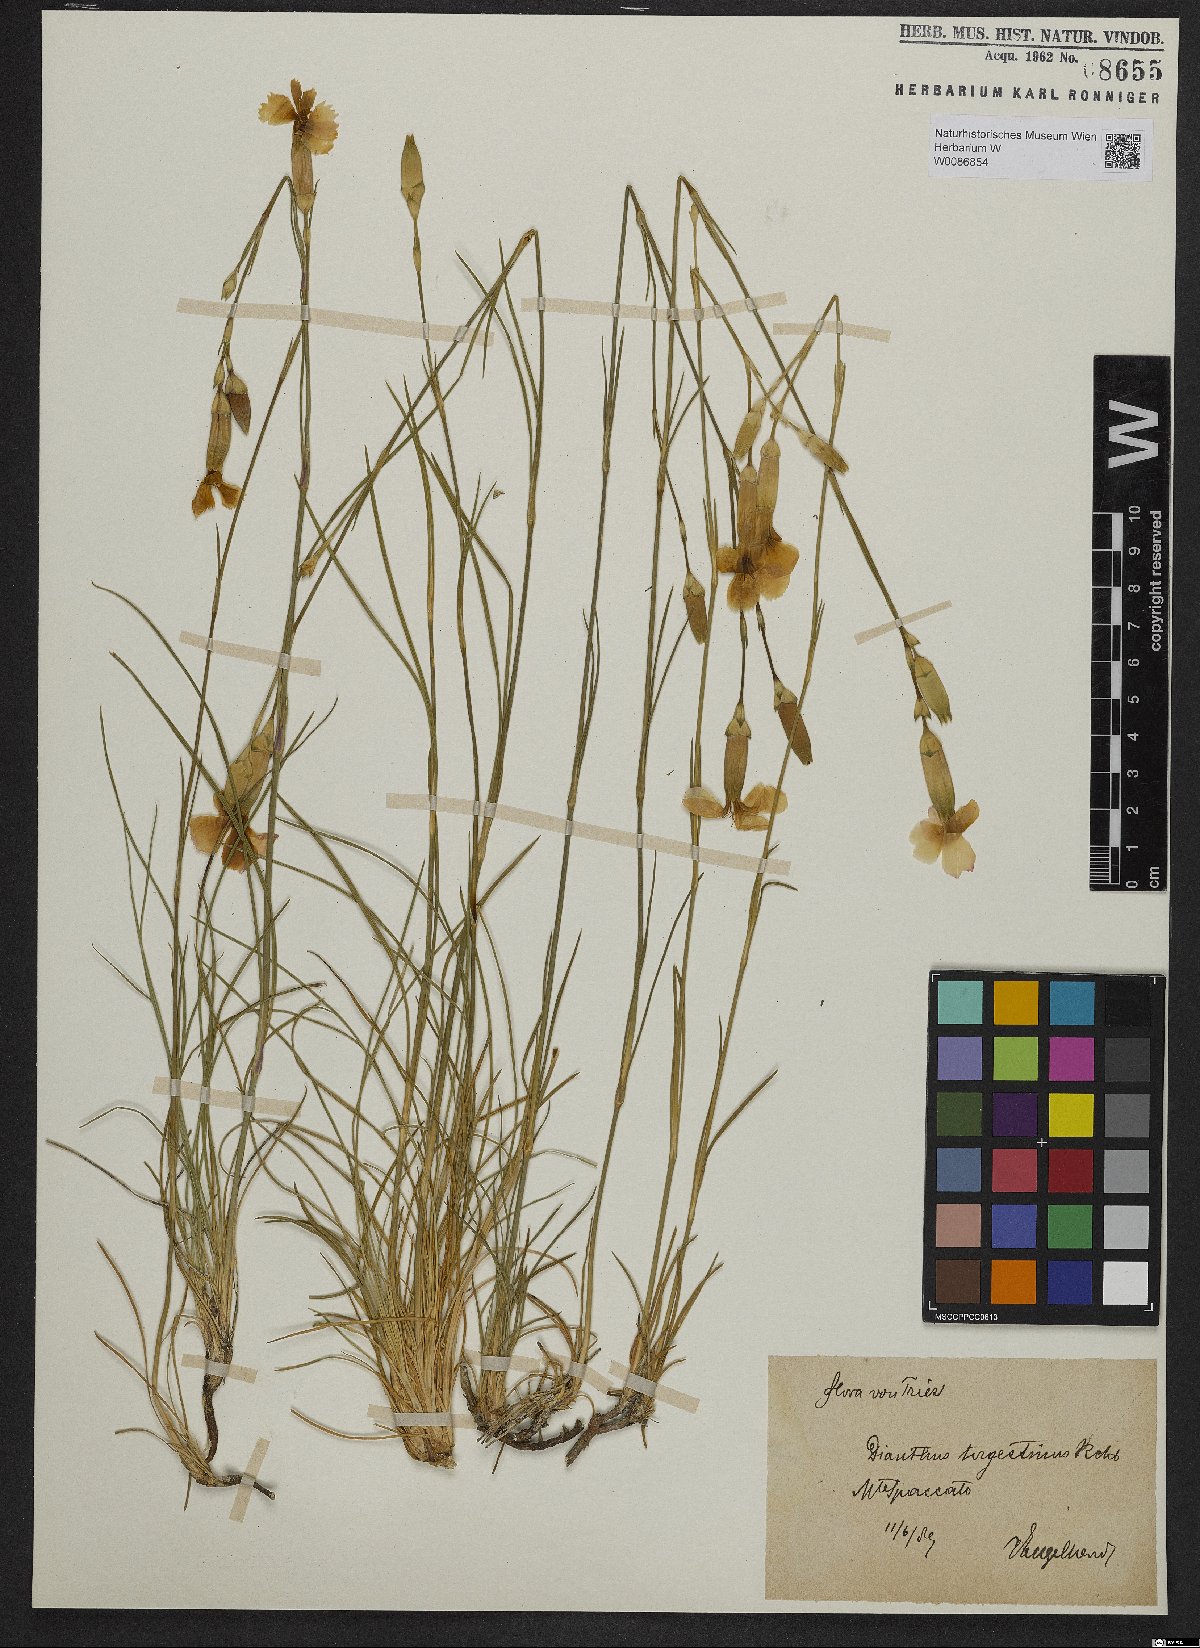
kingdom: Plantae
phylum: Tracheophyta
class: Magnoliopsida
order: Caryophyllales
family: Caryophyllaceae
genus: Dianthus
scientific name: Dianthus sylvestris
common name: Wood pink
